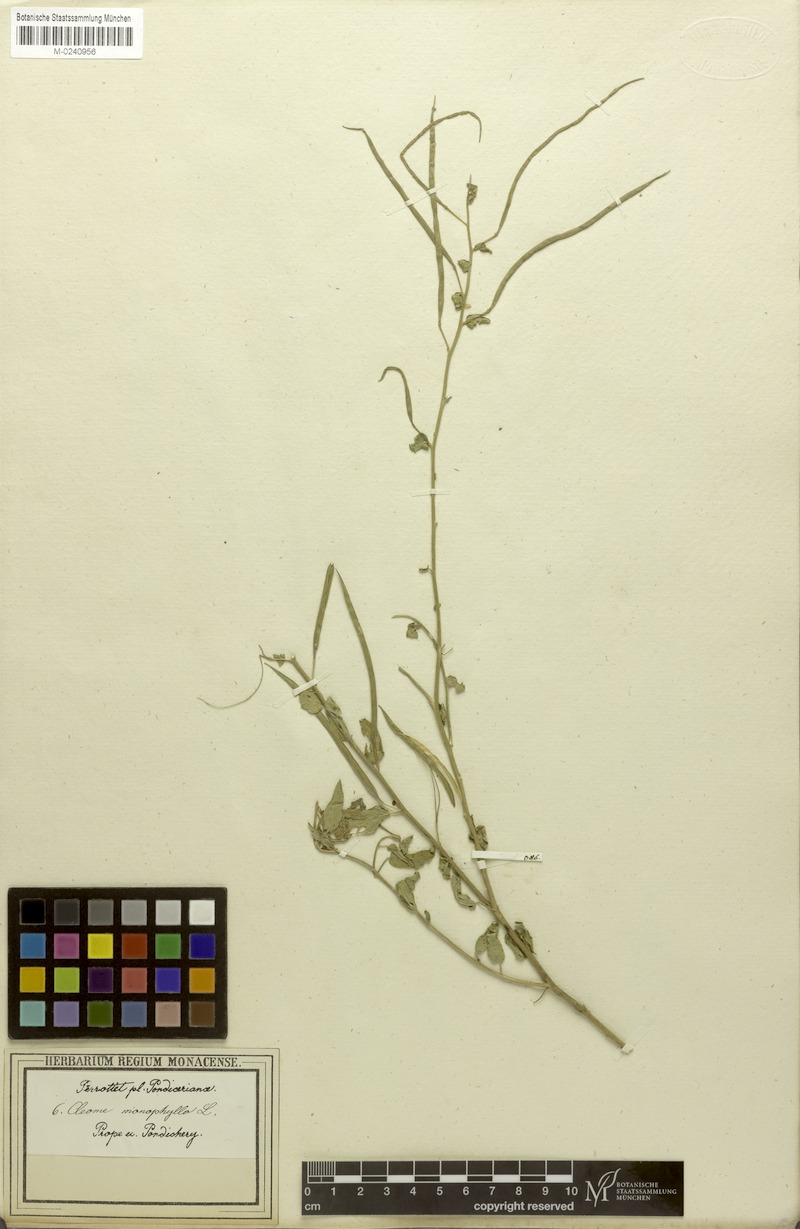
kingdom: Plantae
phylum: Tracheophyta
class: Magnoliopsida
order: Brassicales
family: Cleomaceae
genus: Sieruela
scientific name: Sieruela monophylla
